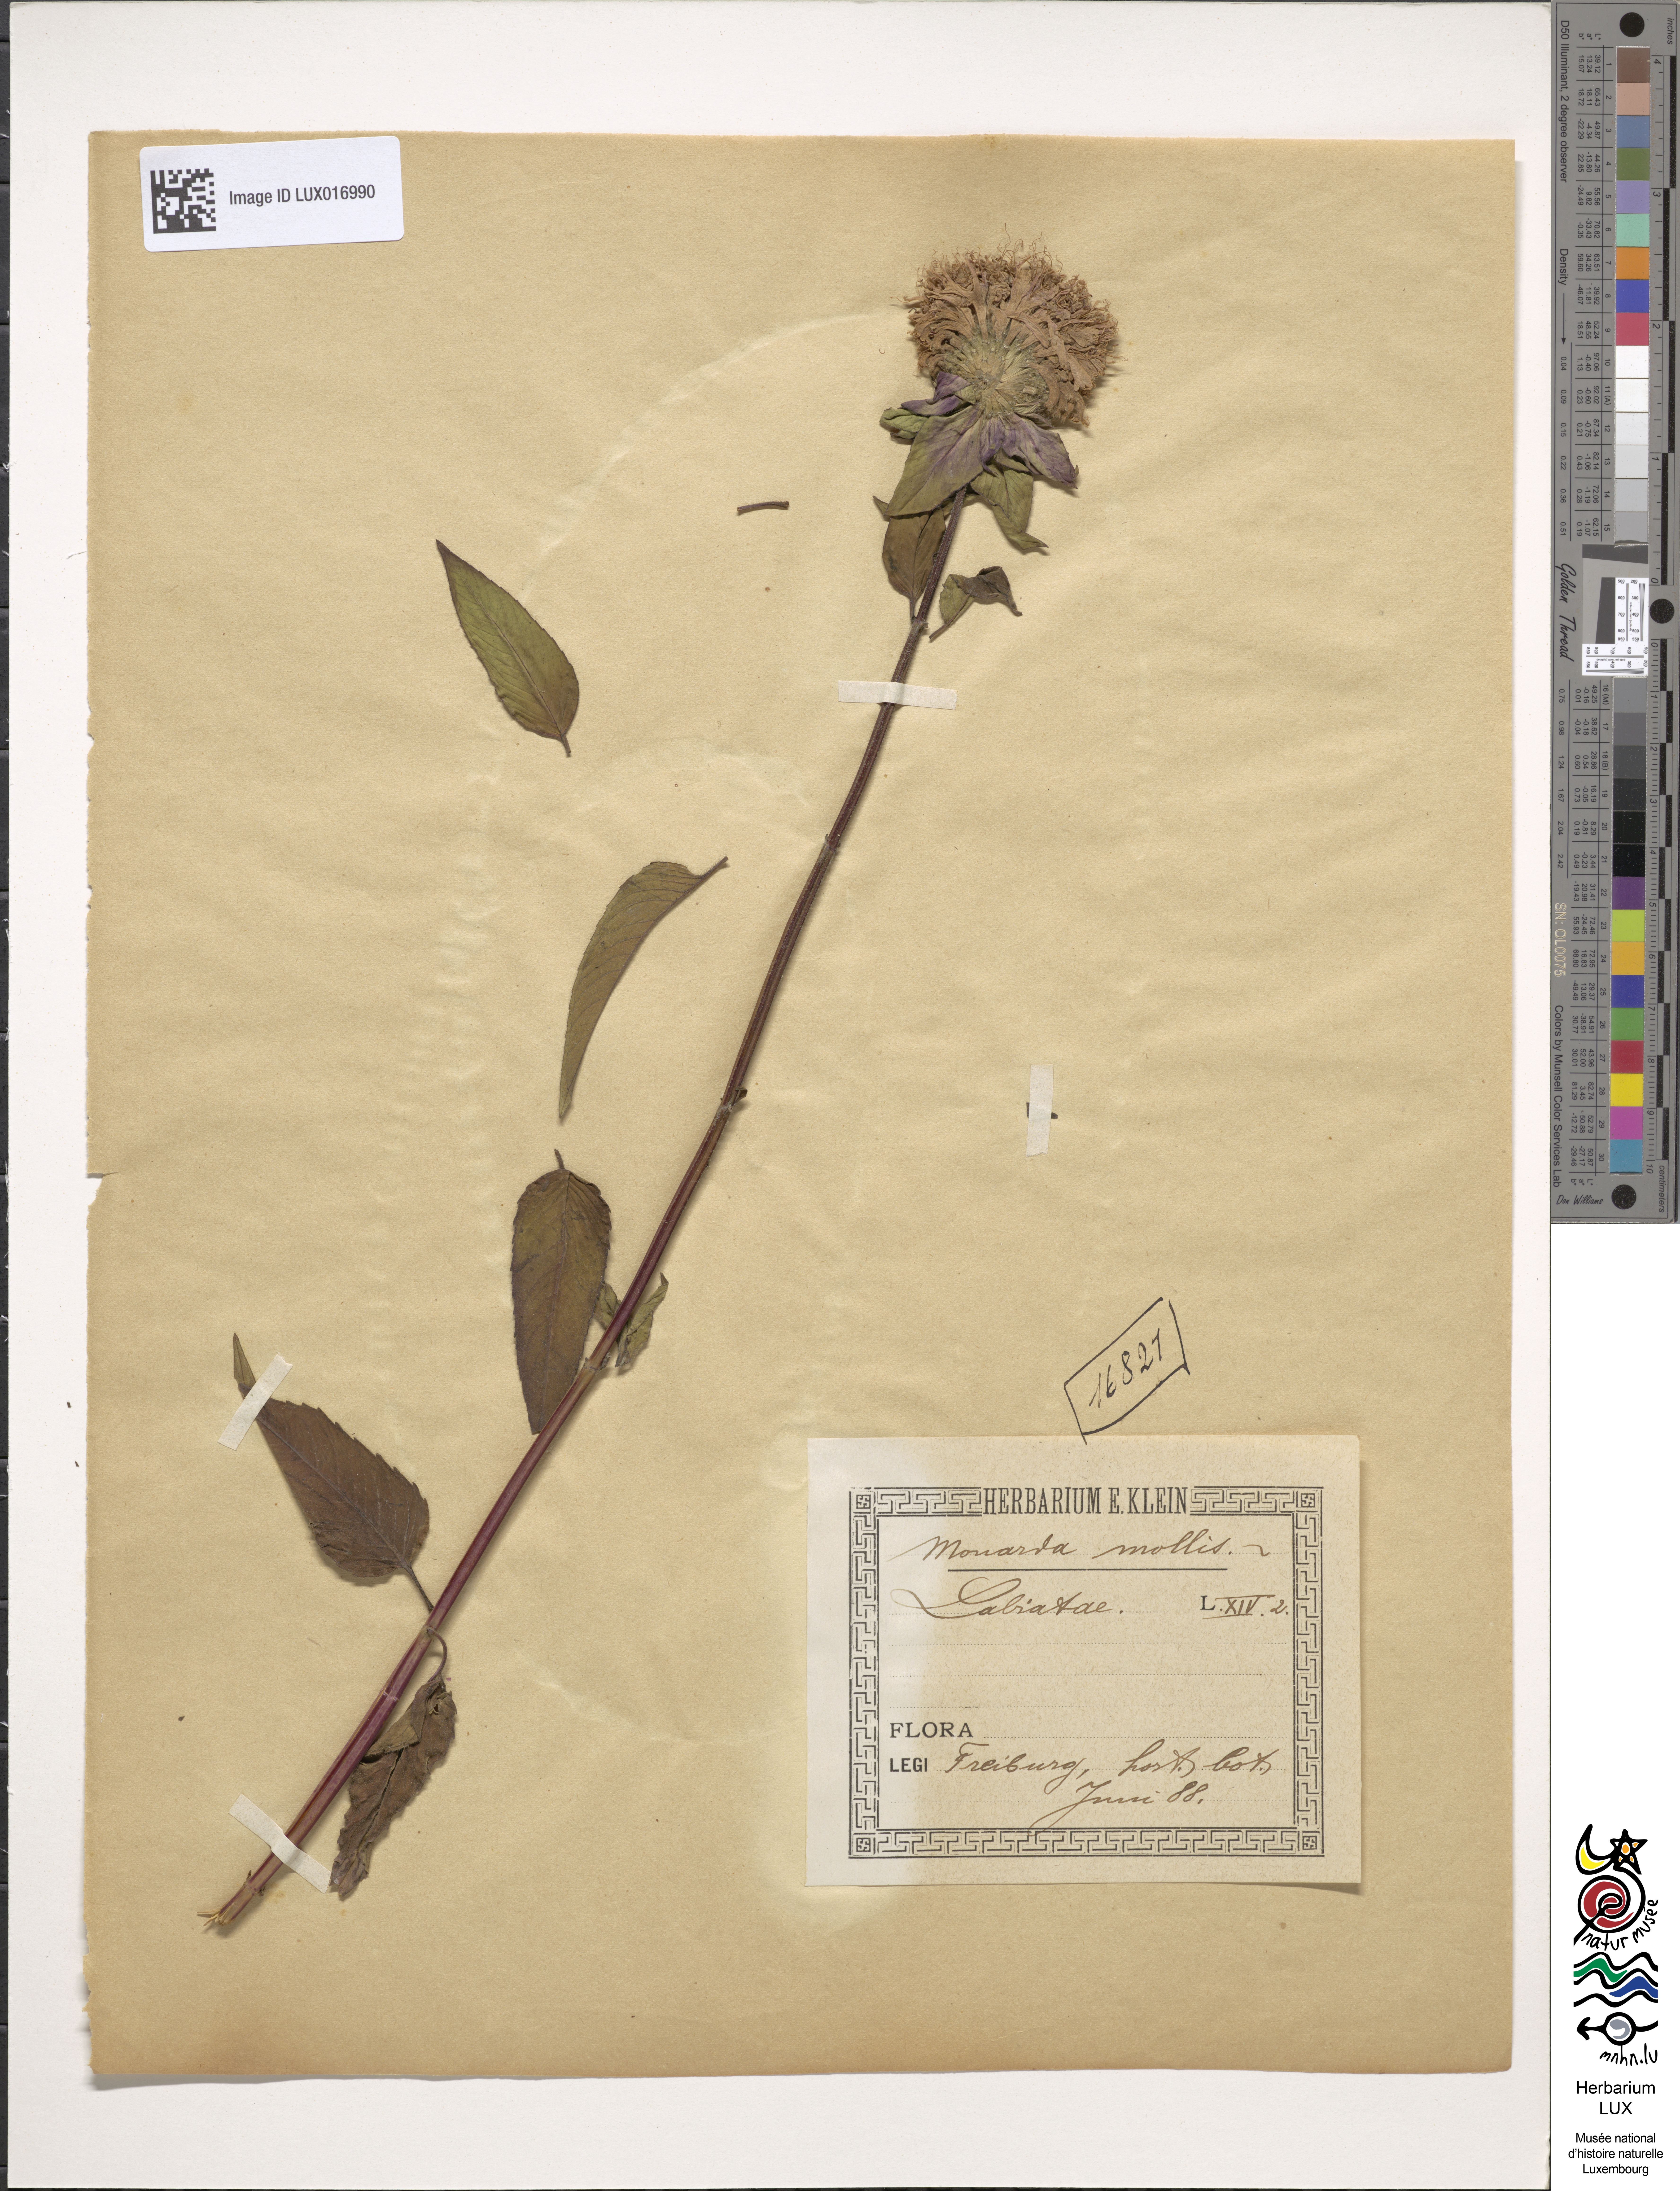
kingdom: Plantae
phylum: Tracheophyta
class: Magnoliopsida
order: Lamiales
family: Lamiaceae
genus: Monarda
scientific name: Monarda fistulosa
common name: Purple beebalm
